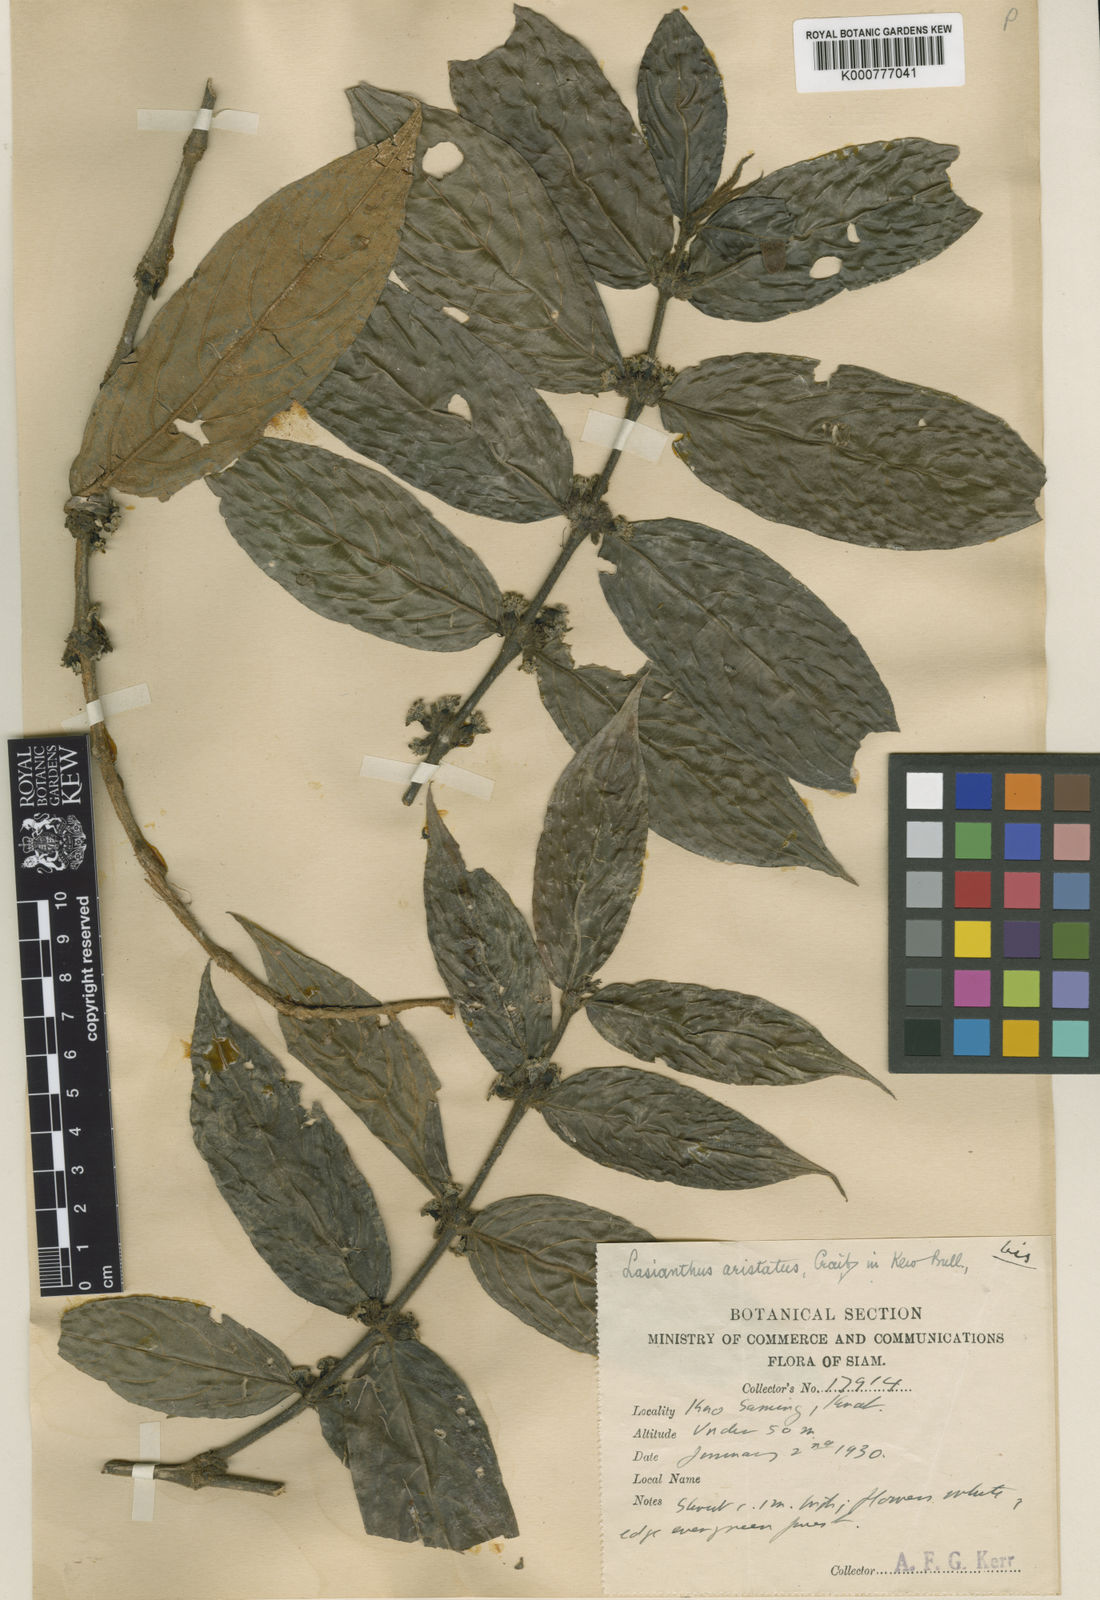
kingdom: Plantae
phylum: Tracheophyta
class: Magnoliopsida
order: Gentianales
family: Rubiaceae
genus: Lasianthus
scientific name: Lasianthus aristatus
